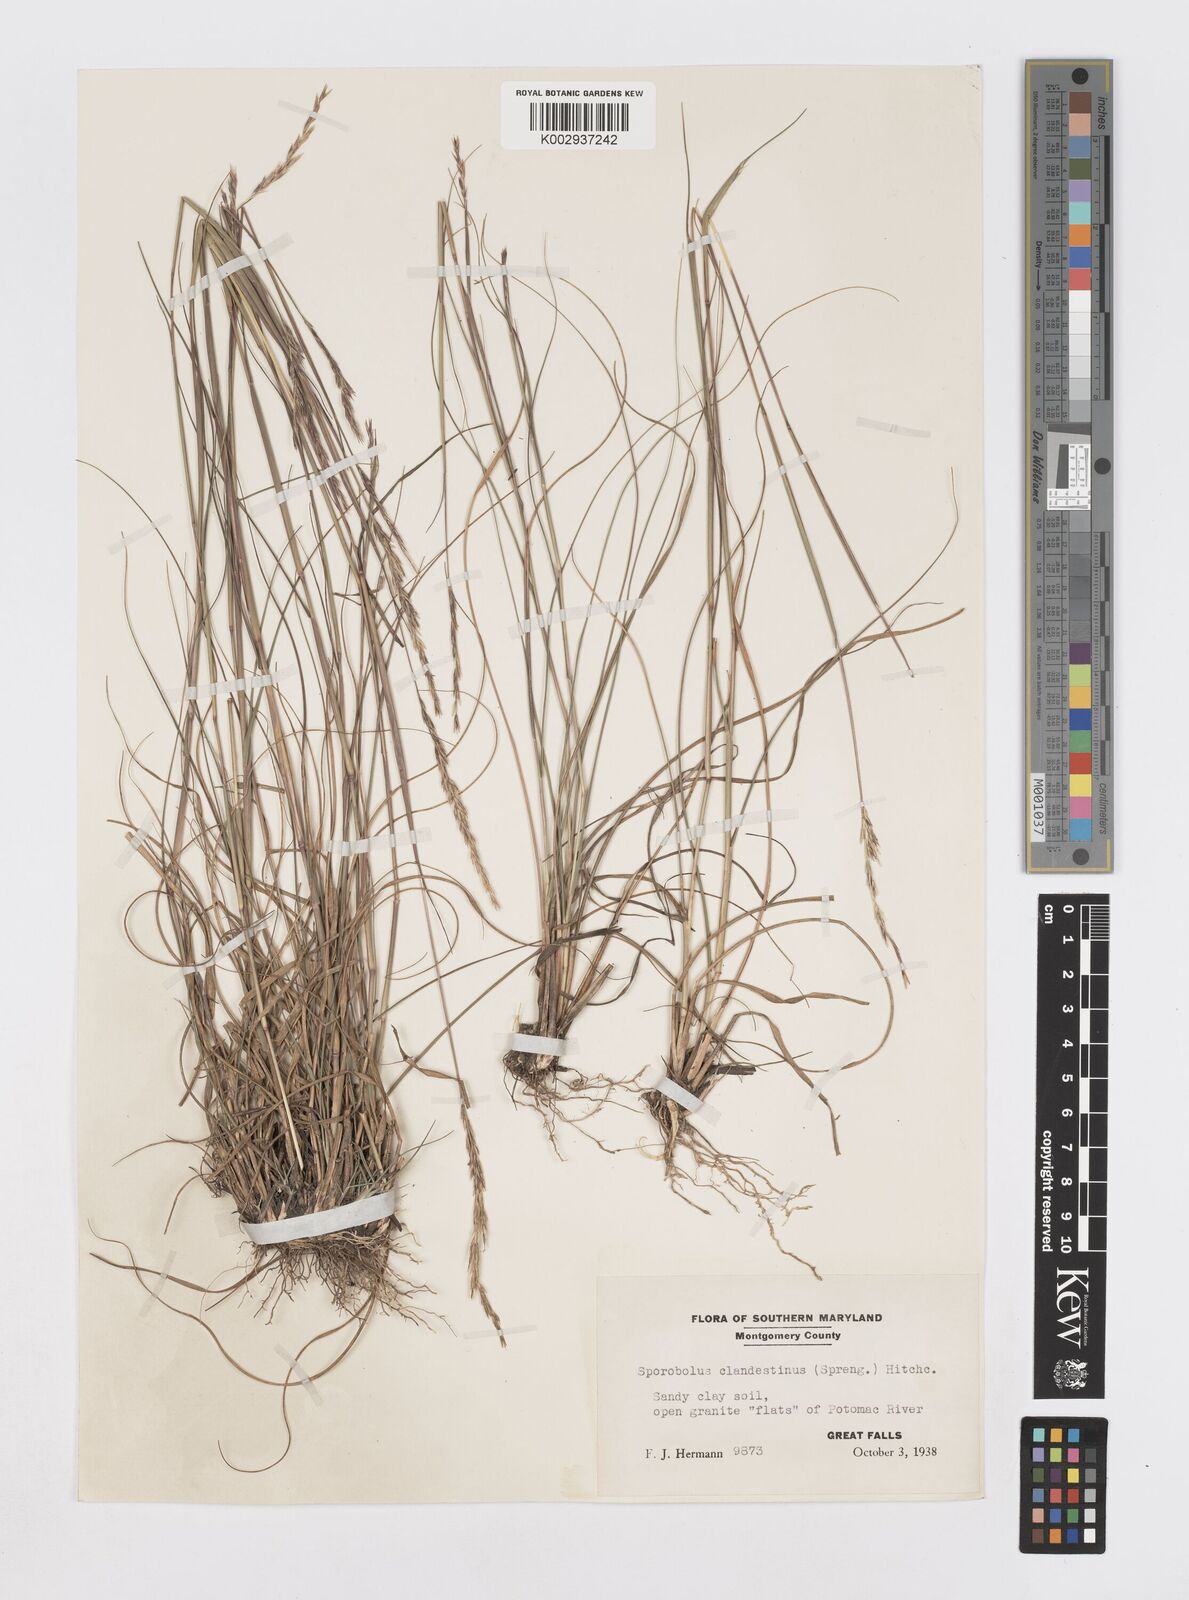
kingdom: Plantae
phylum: Tracheophyta
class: Liliopsida
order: Poales
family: Poaceae
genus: Sporobolus
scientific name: Sporobolus clandestinus
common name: Hidden dropseed
